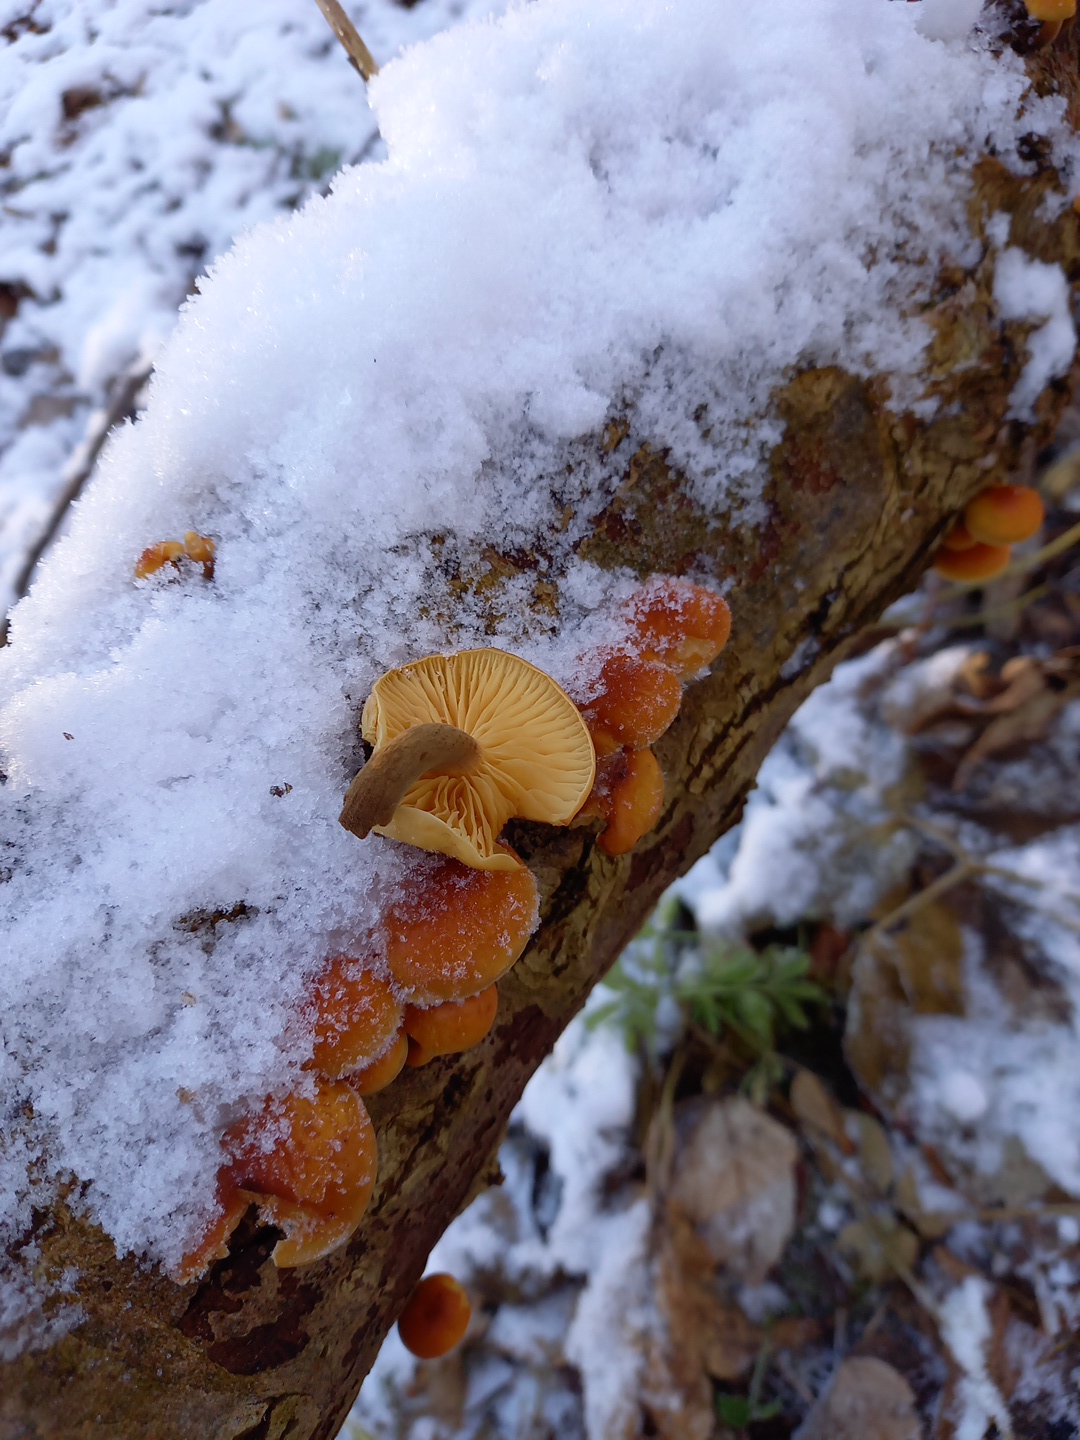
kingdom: Fungi
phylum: Basidiomycota
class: Agaricomycetes
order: Agaricales
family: Physalacriaceae
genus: Flammulina
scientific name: Flammulina
